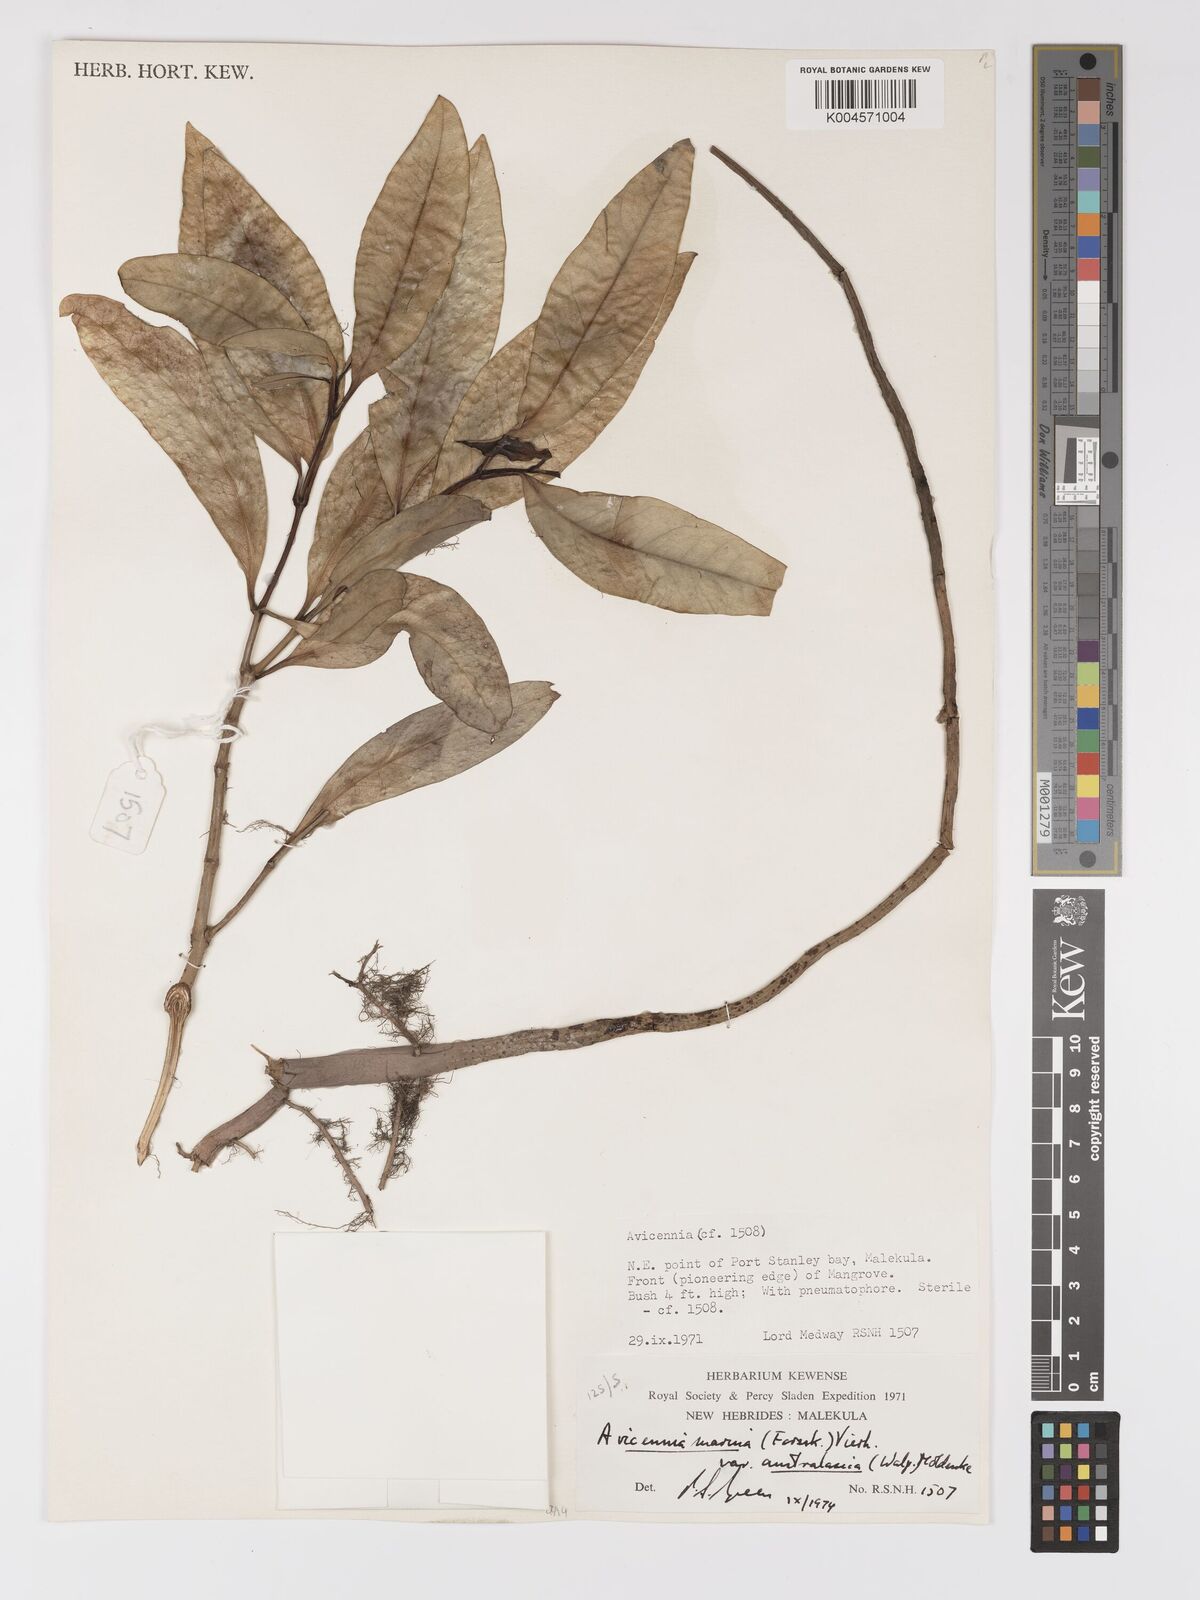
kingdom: Plantae
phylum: Tracheophyta
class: Magnoliopsida
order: Lamiales
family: Acanthaceae
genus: Avicennia
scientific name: Avicennia marina
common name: Gray mangrove
